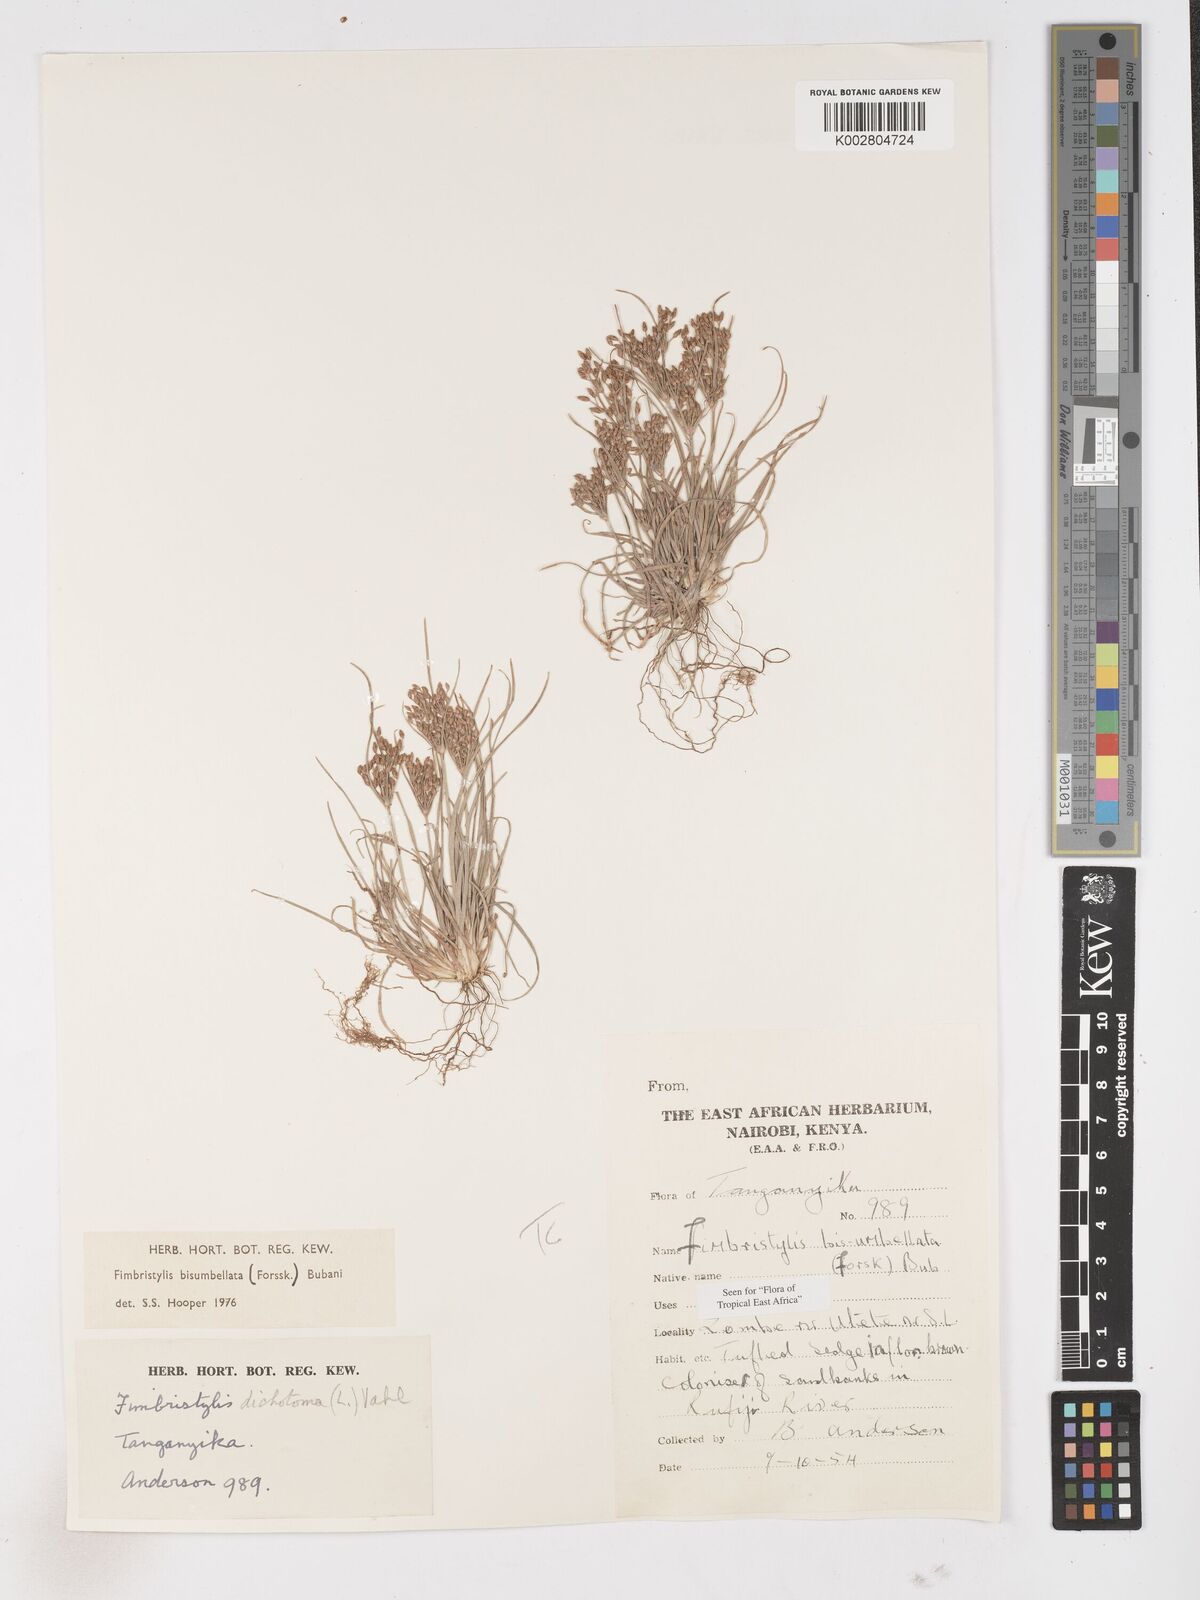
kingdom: Plantae
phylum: Tracheophyta
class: Liliopsida
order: Poales
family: Cyperaceae
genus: Fimbristylis
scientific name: Fimbristylis bisumbellata
